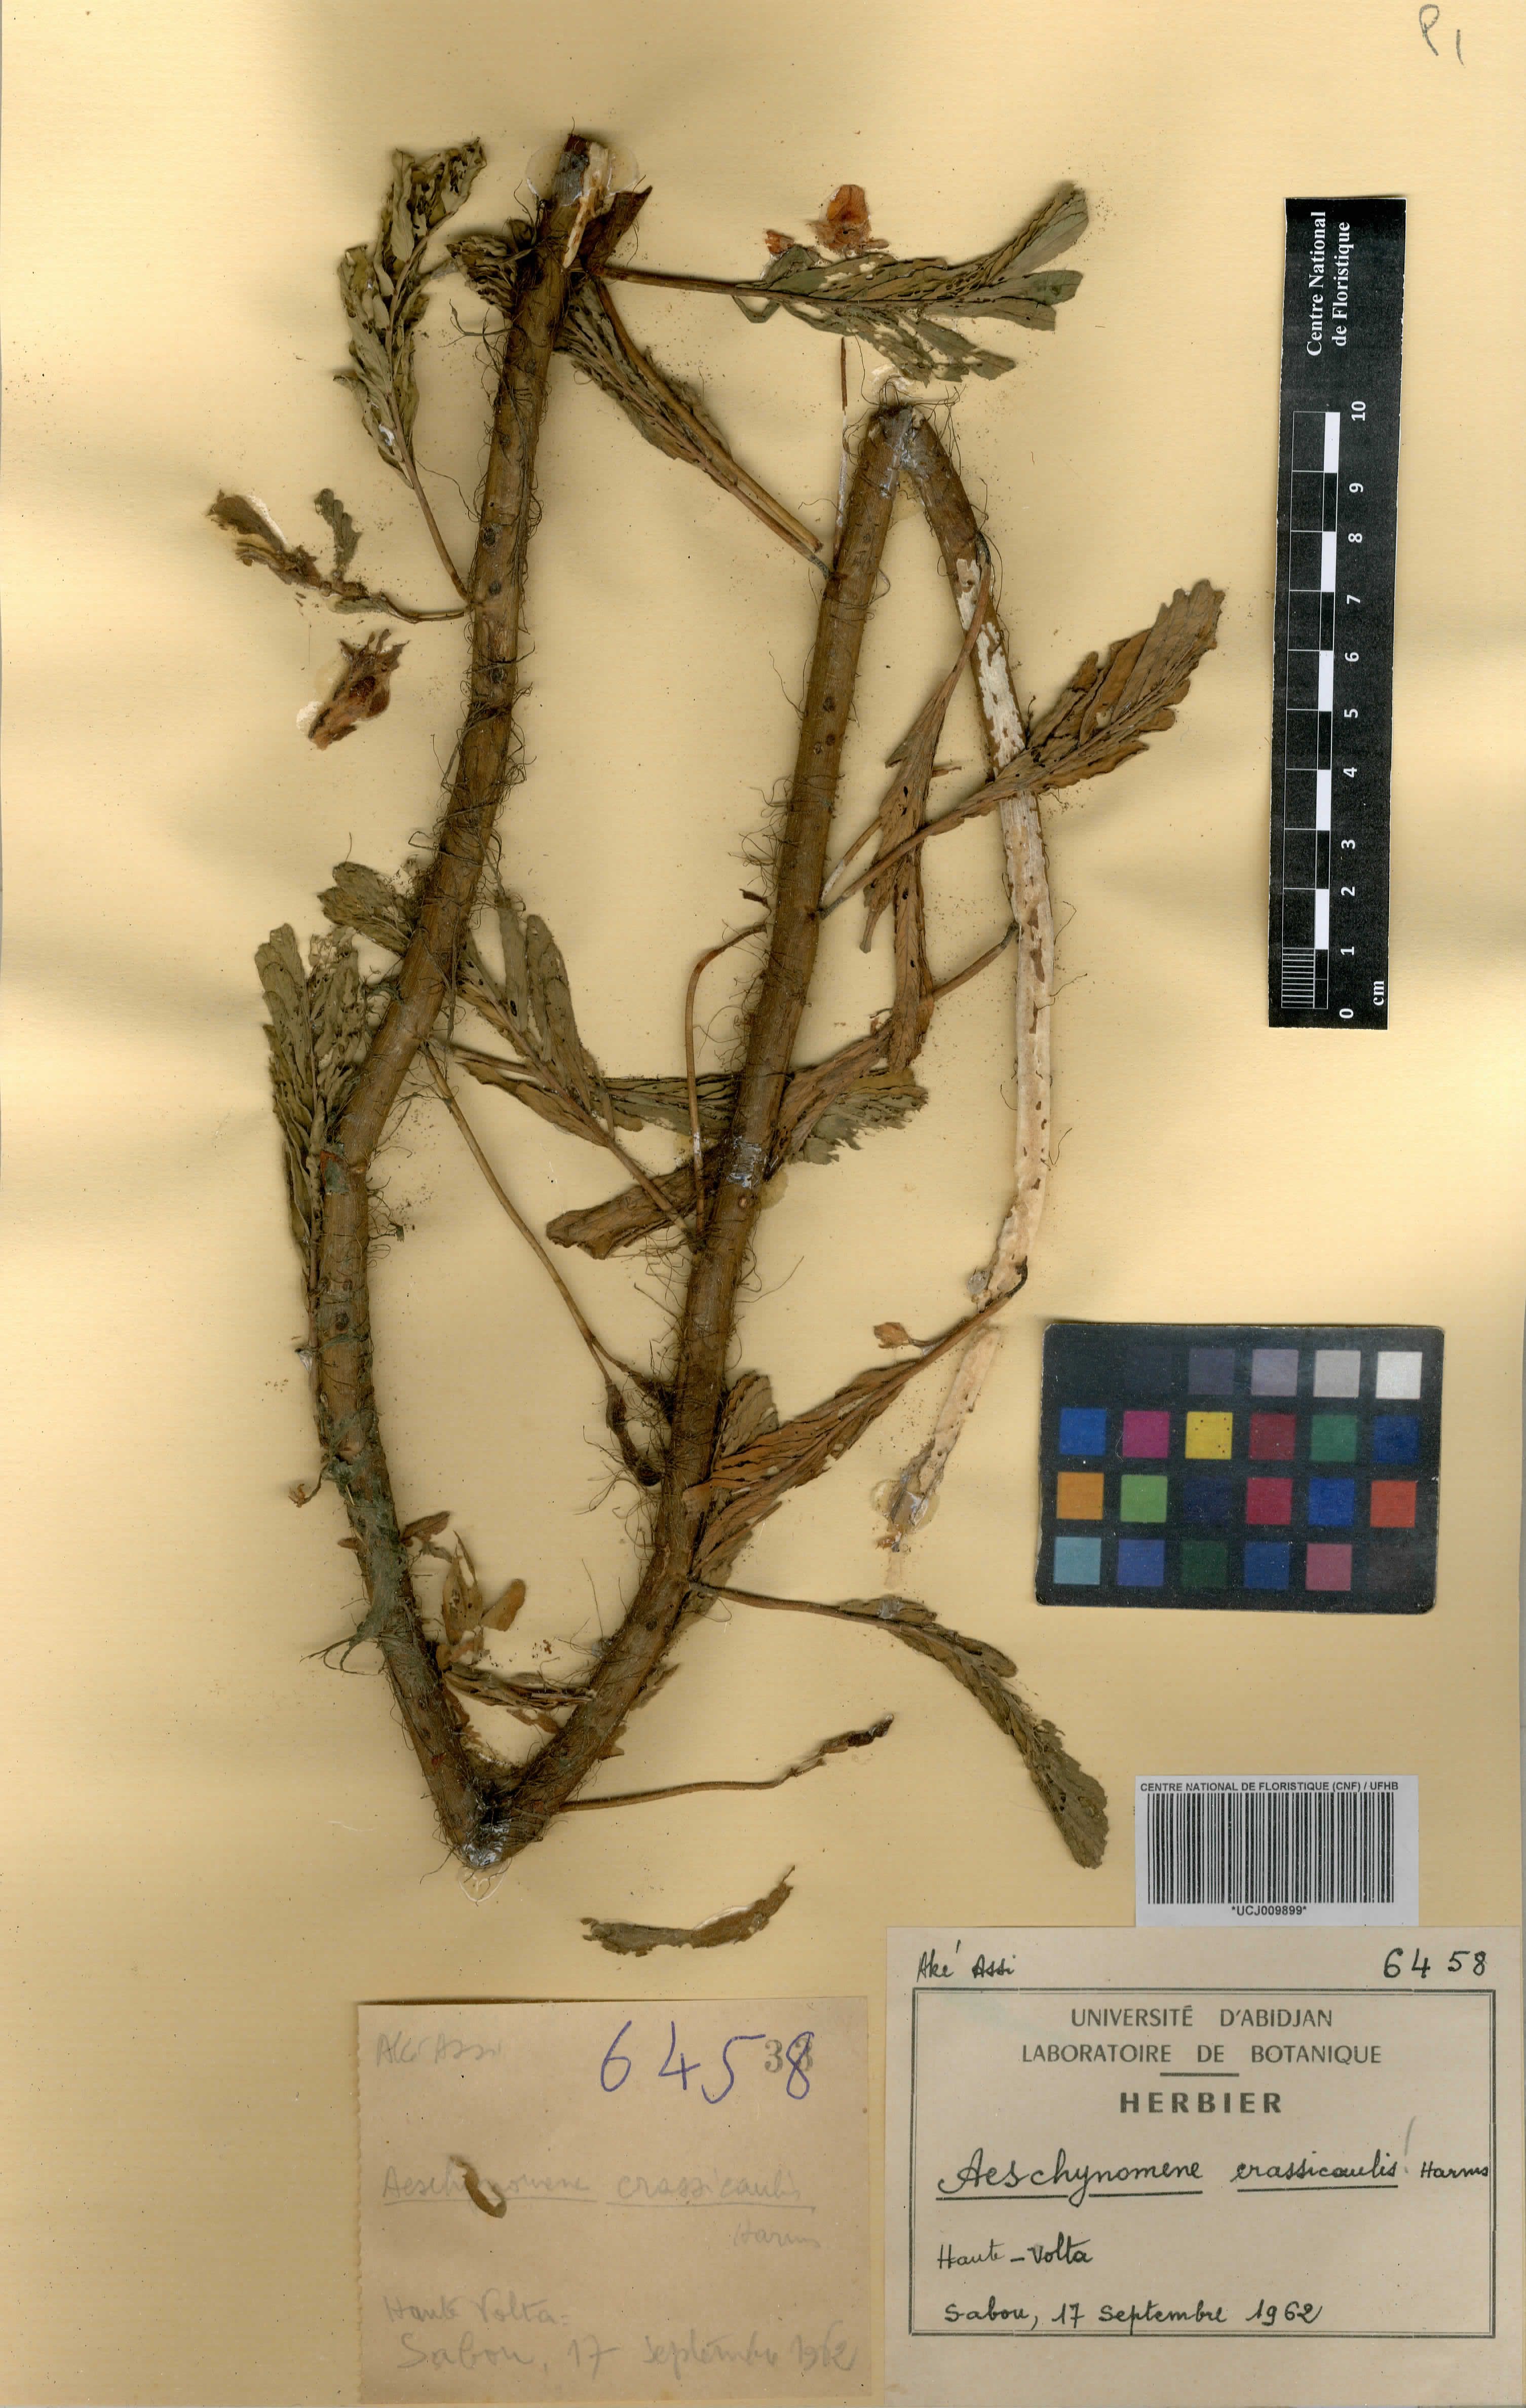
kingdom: Plantae
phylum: Tracheophyta
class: Magnoliopsida
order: Fabales
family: Fabaceae
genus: Aeschynomene
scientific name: Aeschynomene crassicaulis
